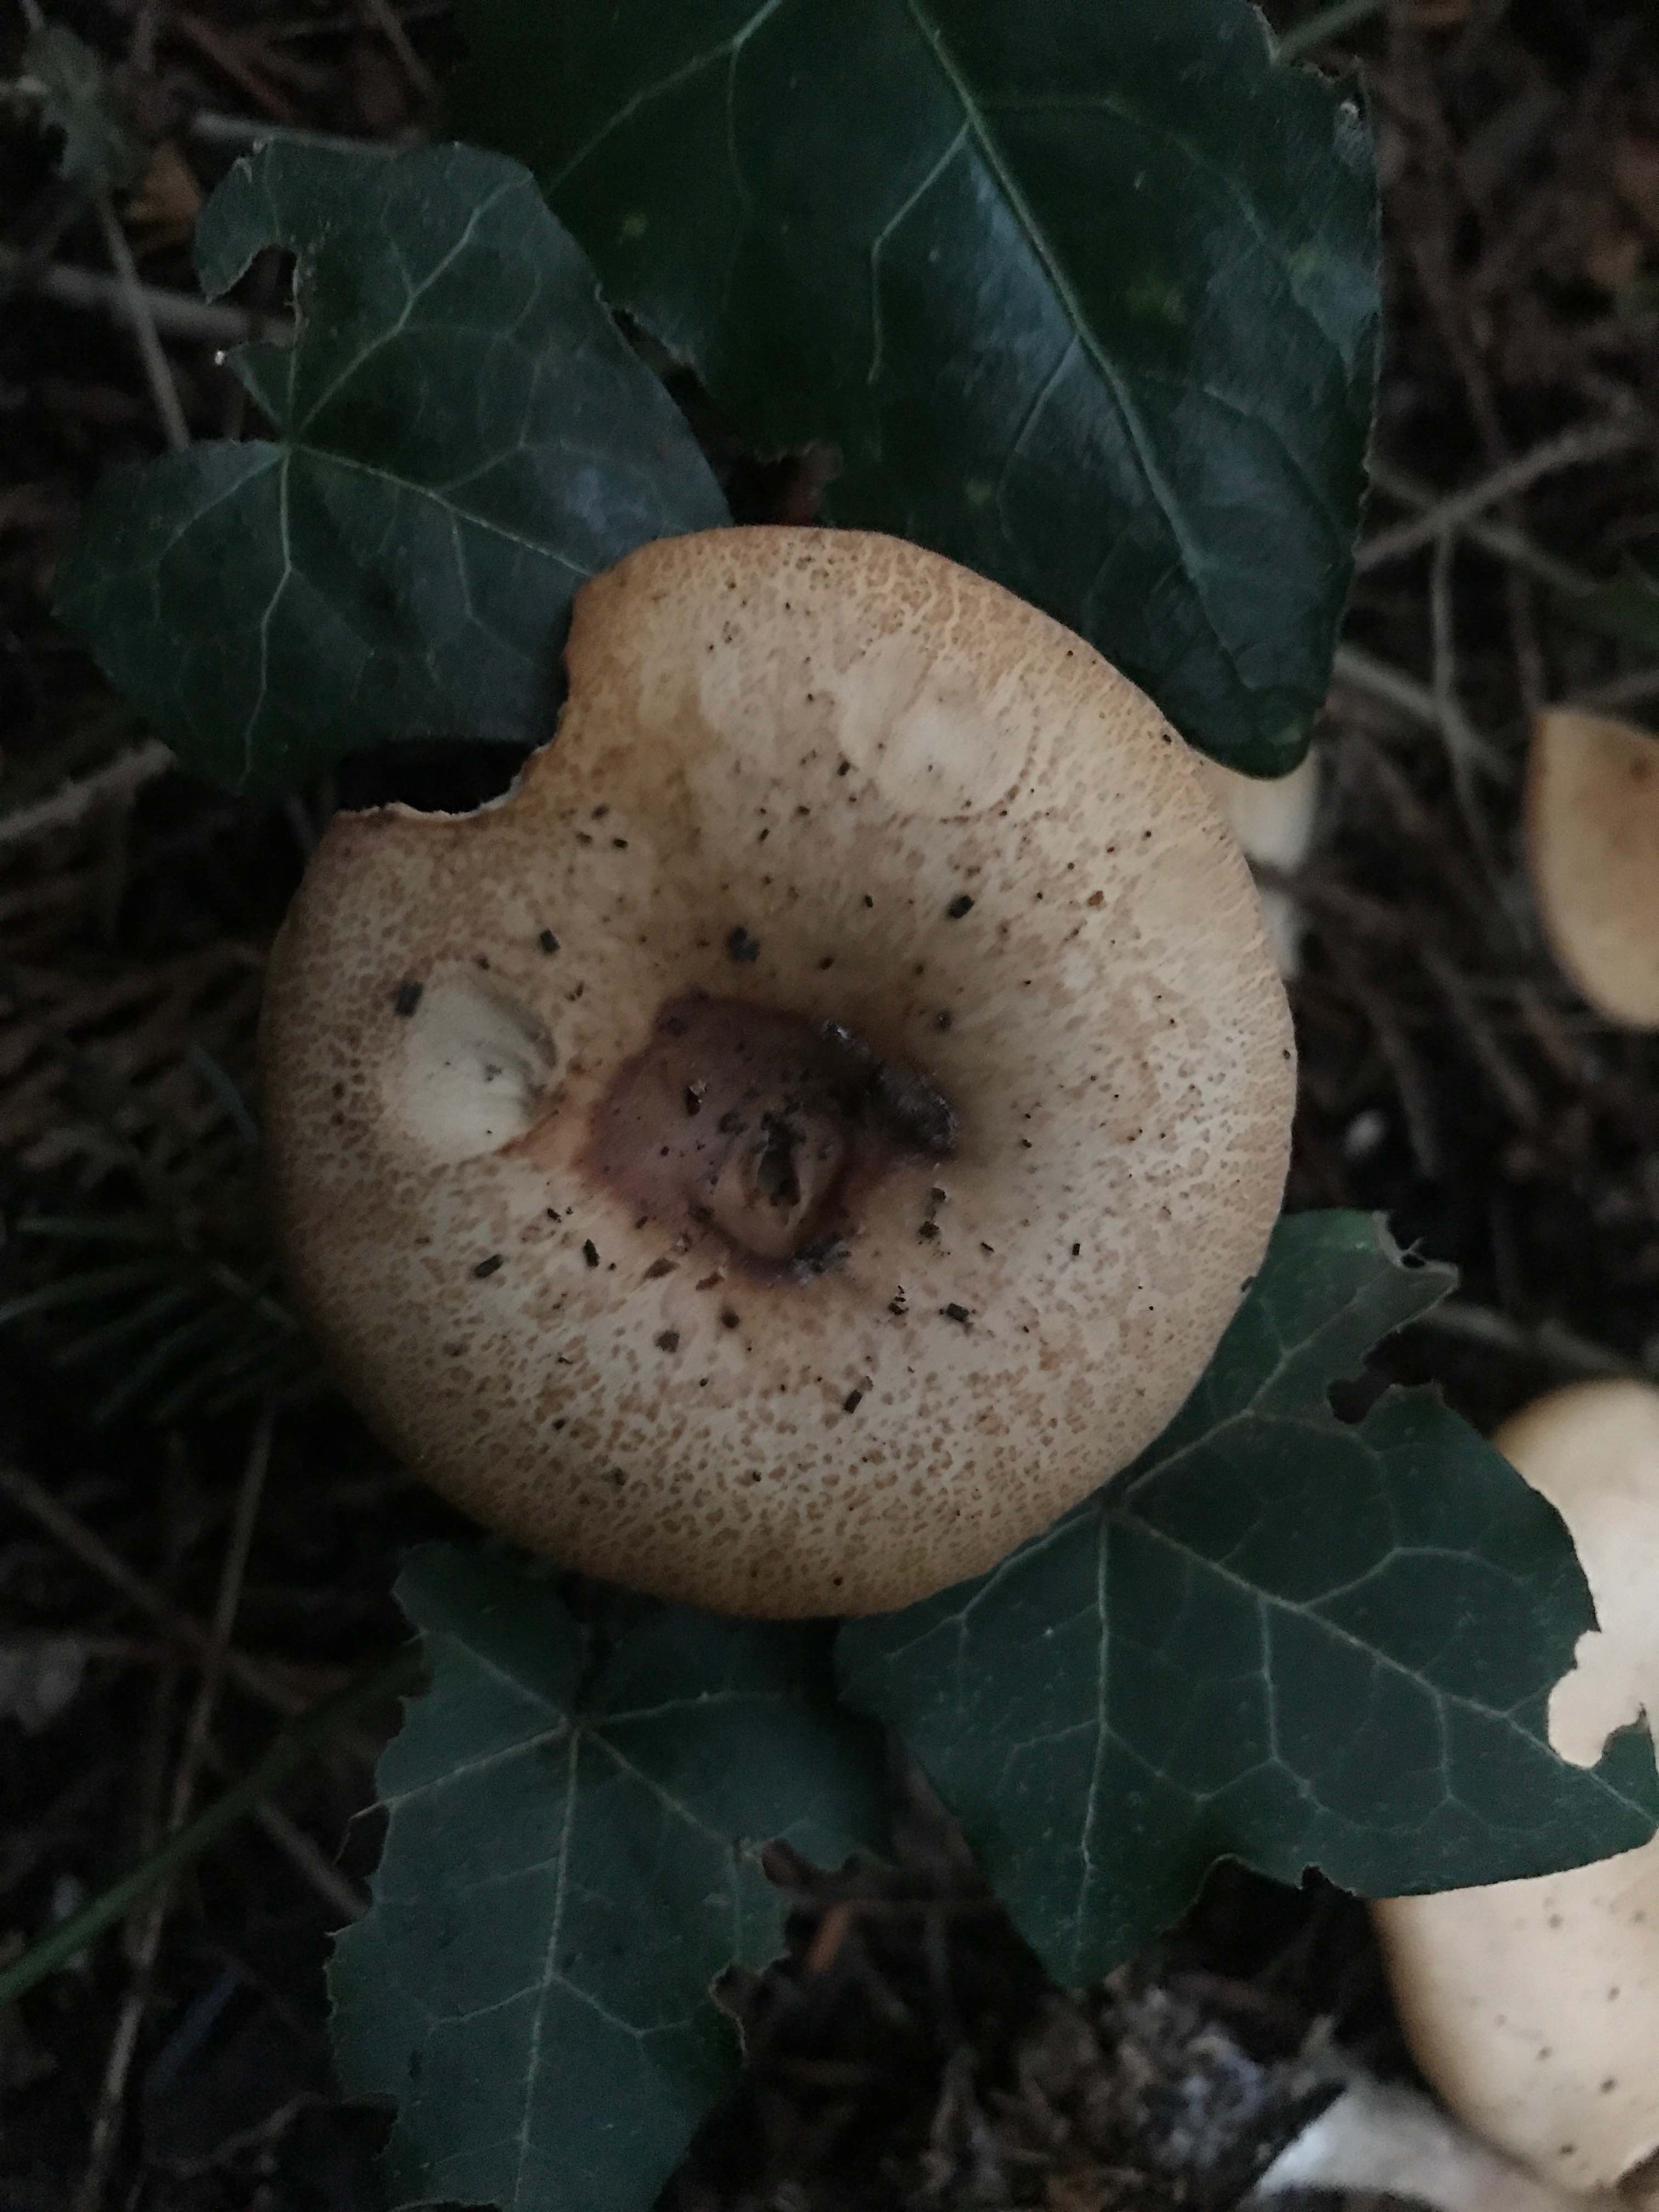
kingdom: Fungi
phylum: Basidiomycota
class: Agaricomycetes
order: Agaricales
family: Tricholomataceae
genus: Paralepista
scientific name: Paralepista flaccida
